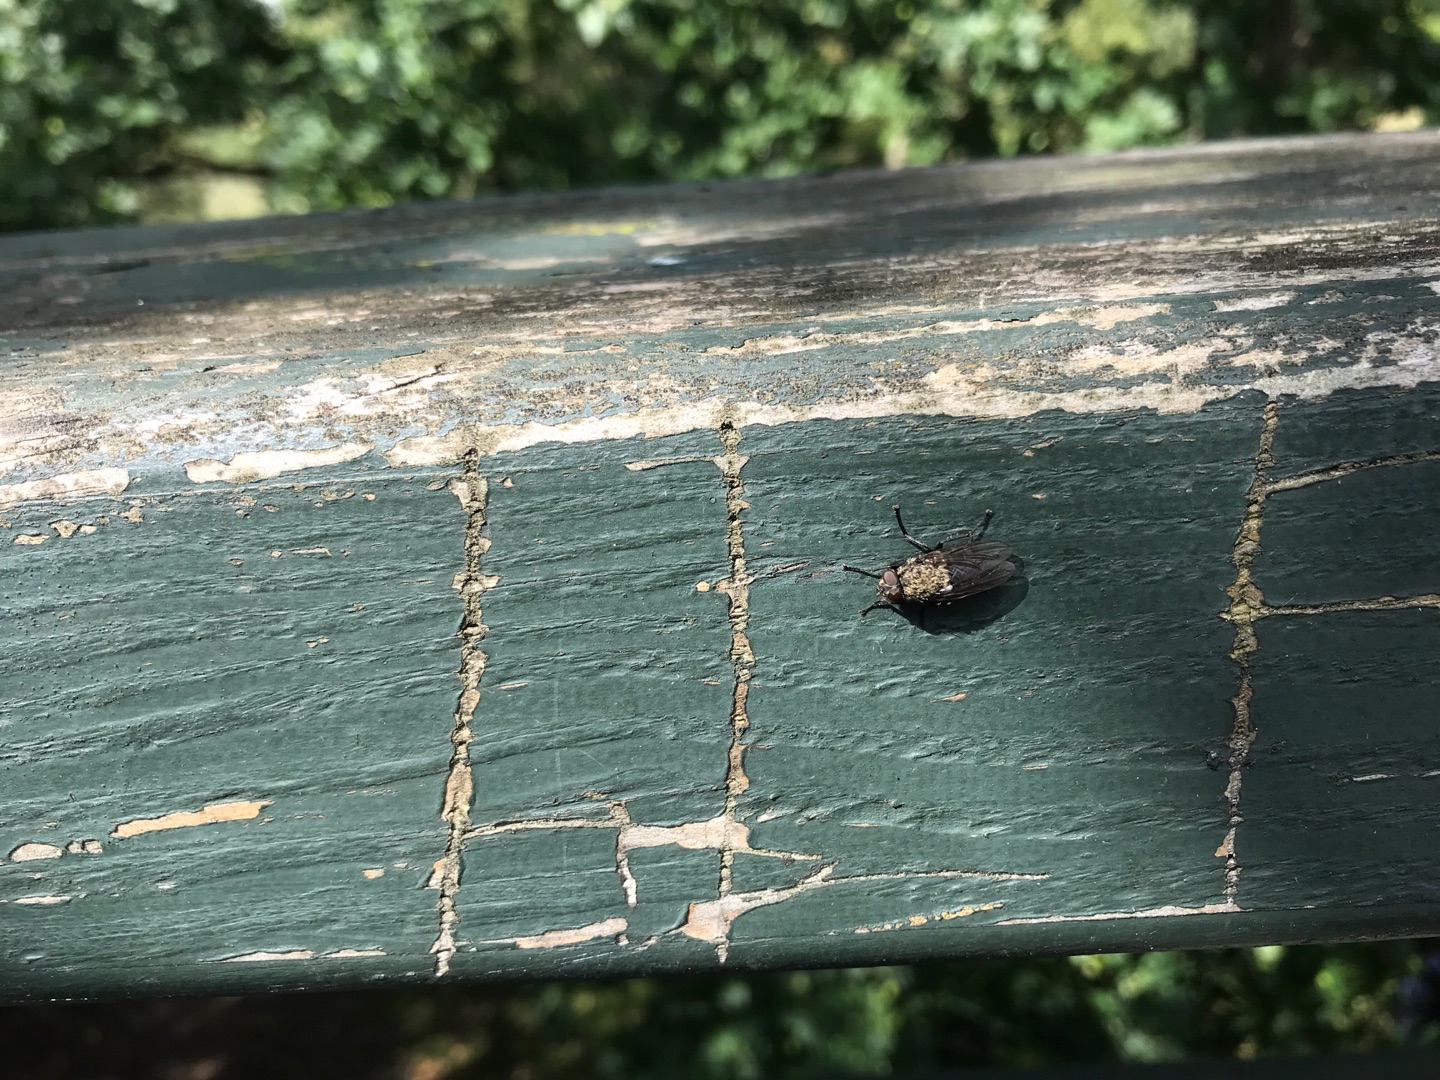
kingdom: Animalia
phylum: Arthropoda
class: Insecta
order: Diptera
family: Polleniidae
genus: Pollenia
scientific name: Pollenia
